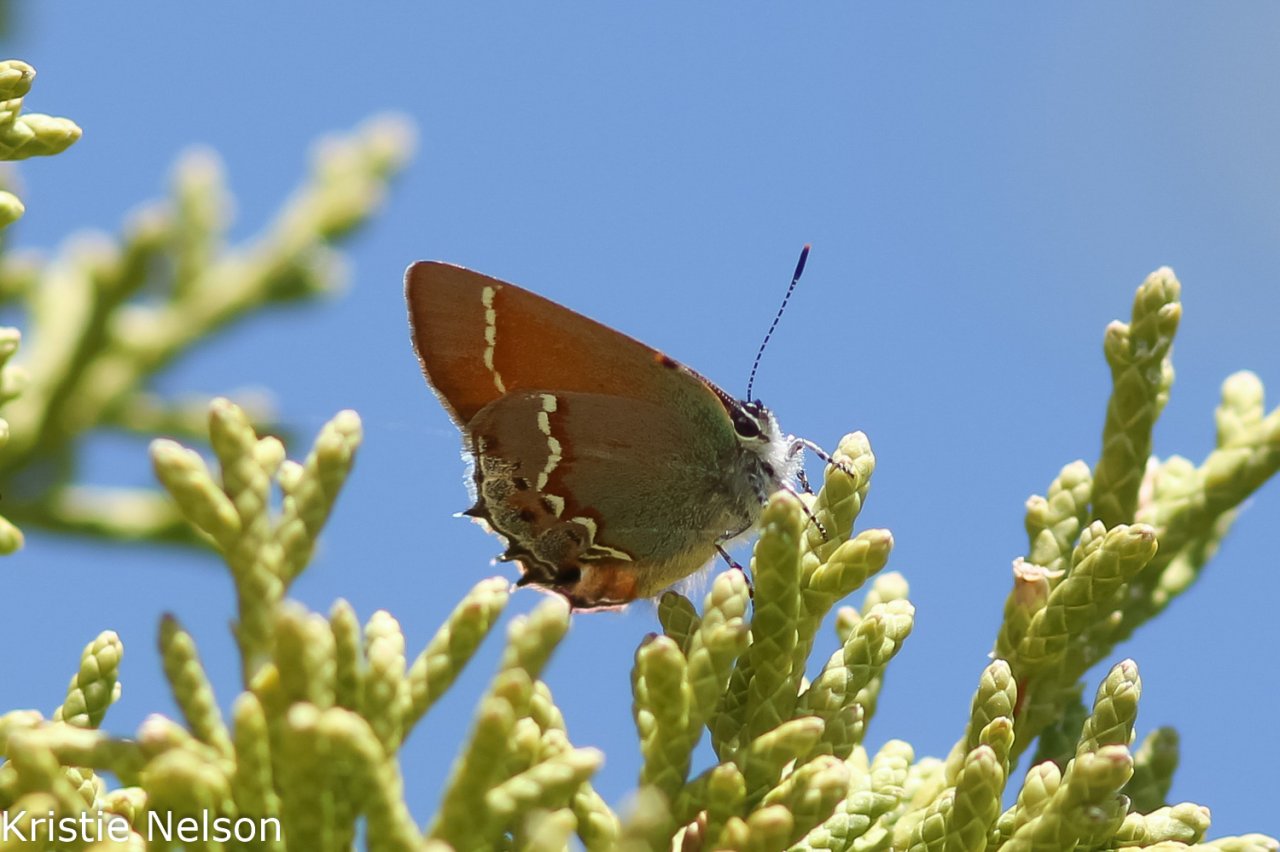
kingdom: Animalia
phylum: Arthropoda
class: Insecta
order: Lepidoptera
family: Lycaenidae
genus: Mitoura
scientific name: Mitoura gryneus
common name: Juniper Hairstreak
